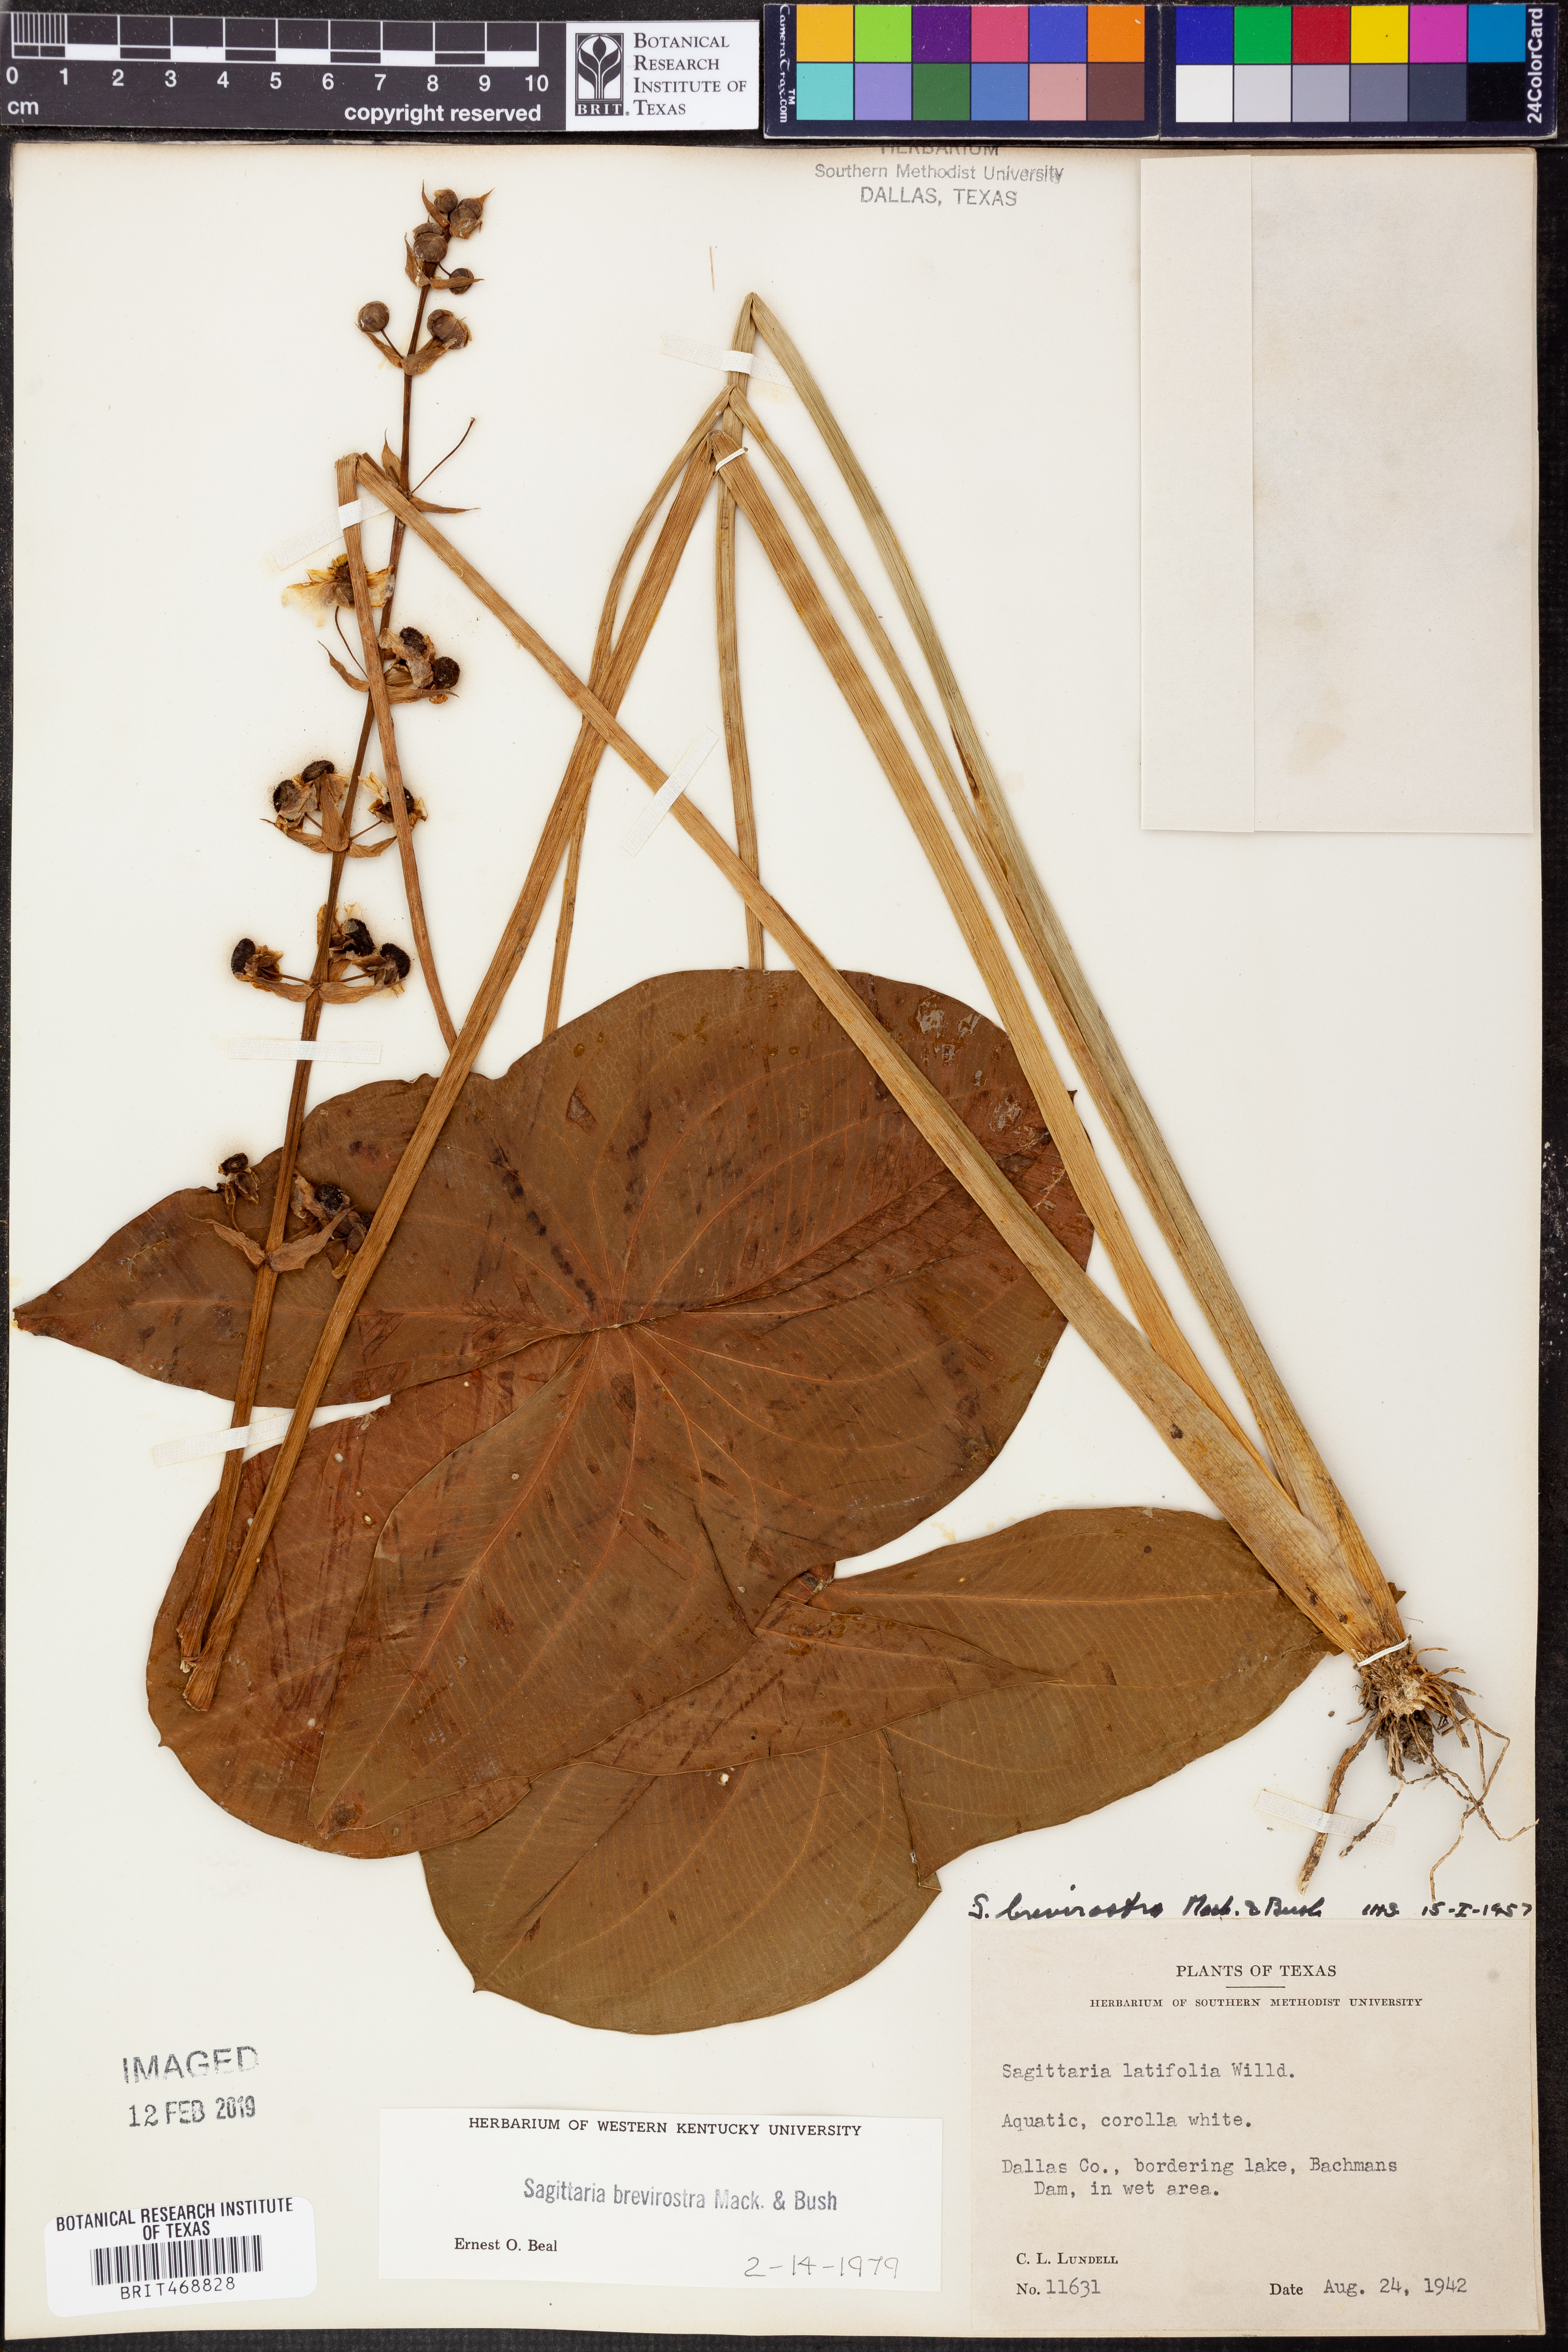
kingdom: Plantae
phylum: Tracheophyta
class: Liliopsida
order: Alismatales
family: Alismataceae
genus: Sagittaria
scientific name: Sagittaria brevirostra
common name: Midwestern arrowhead
